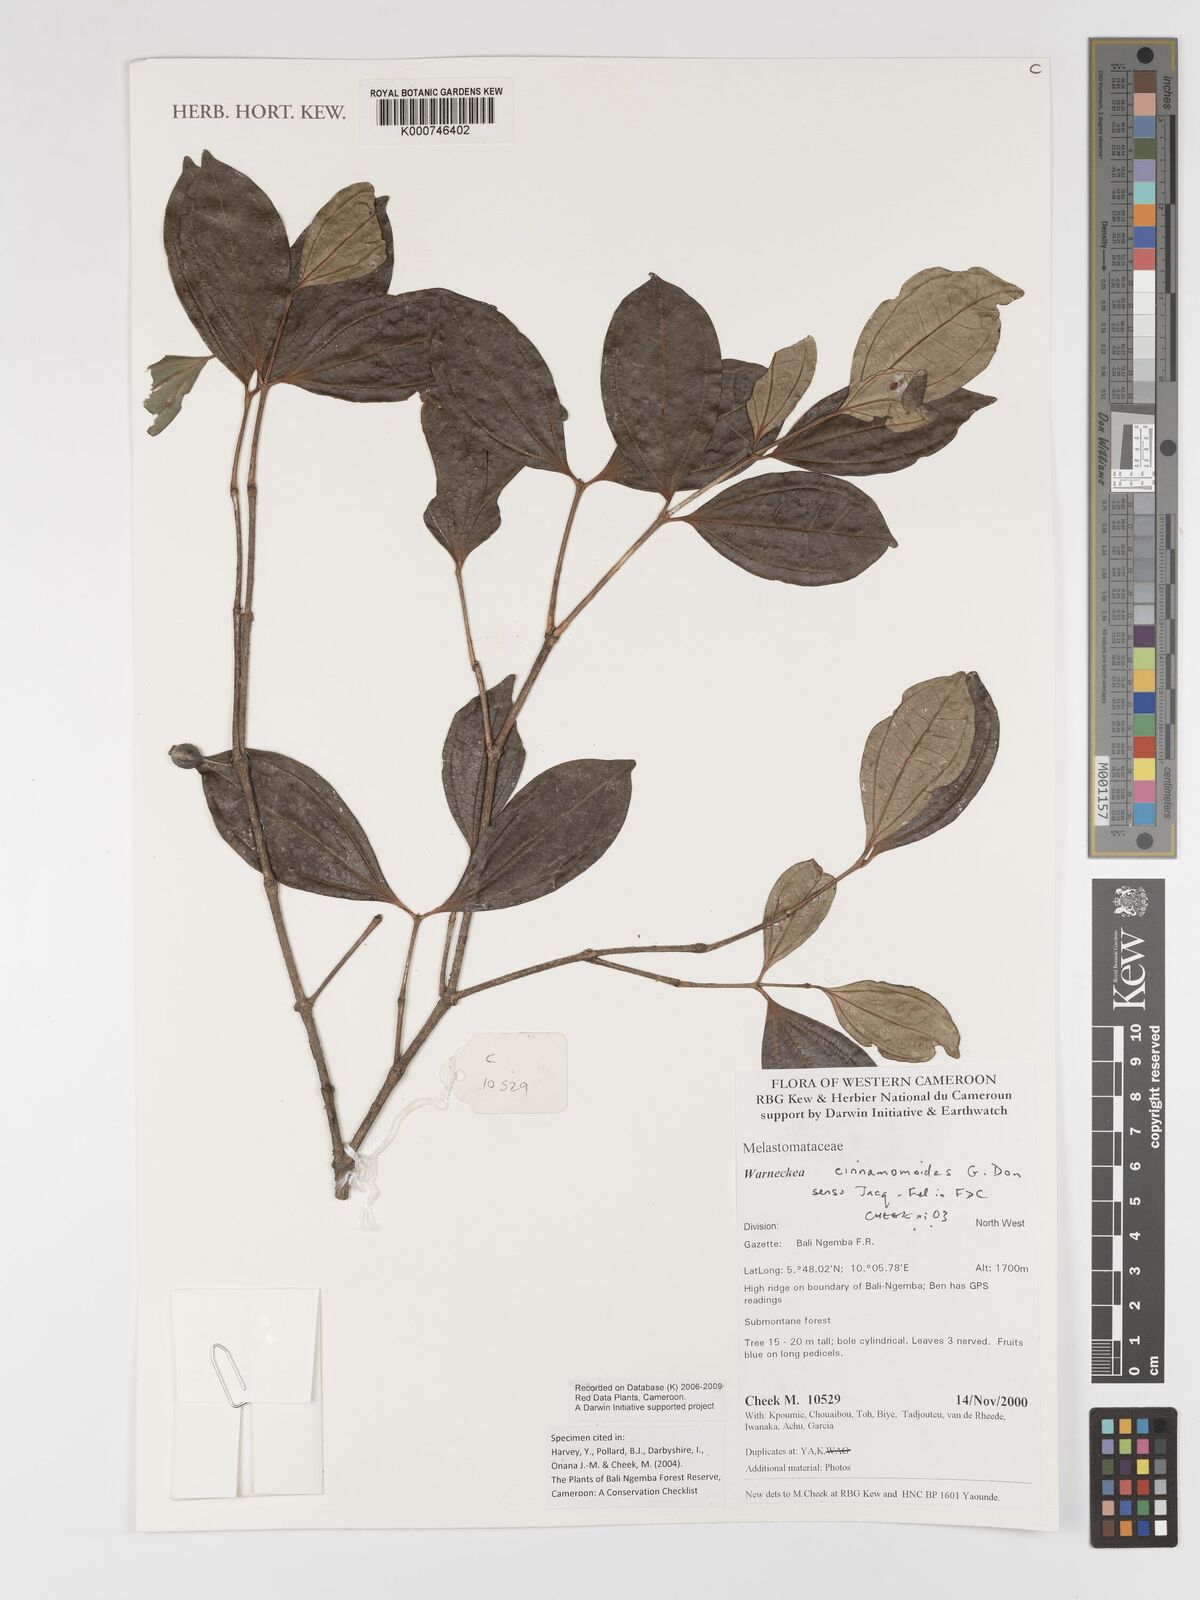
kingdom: Plantae
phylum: Tracheophyta
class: Magnoliopsida
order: Myrtales
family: Melastomataceae
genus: Warneckea
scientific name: Warneckea
